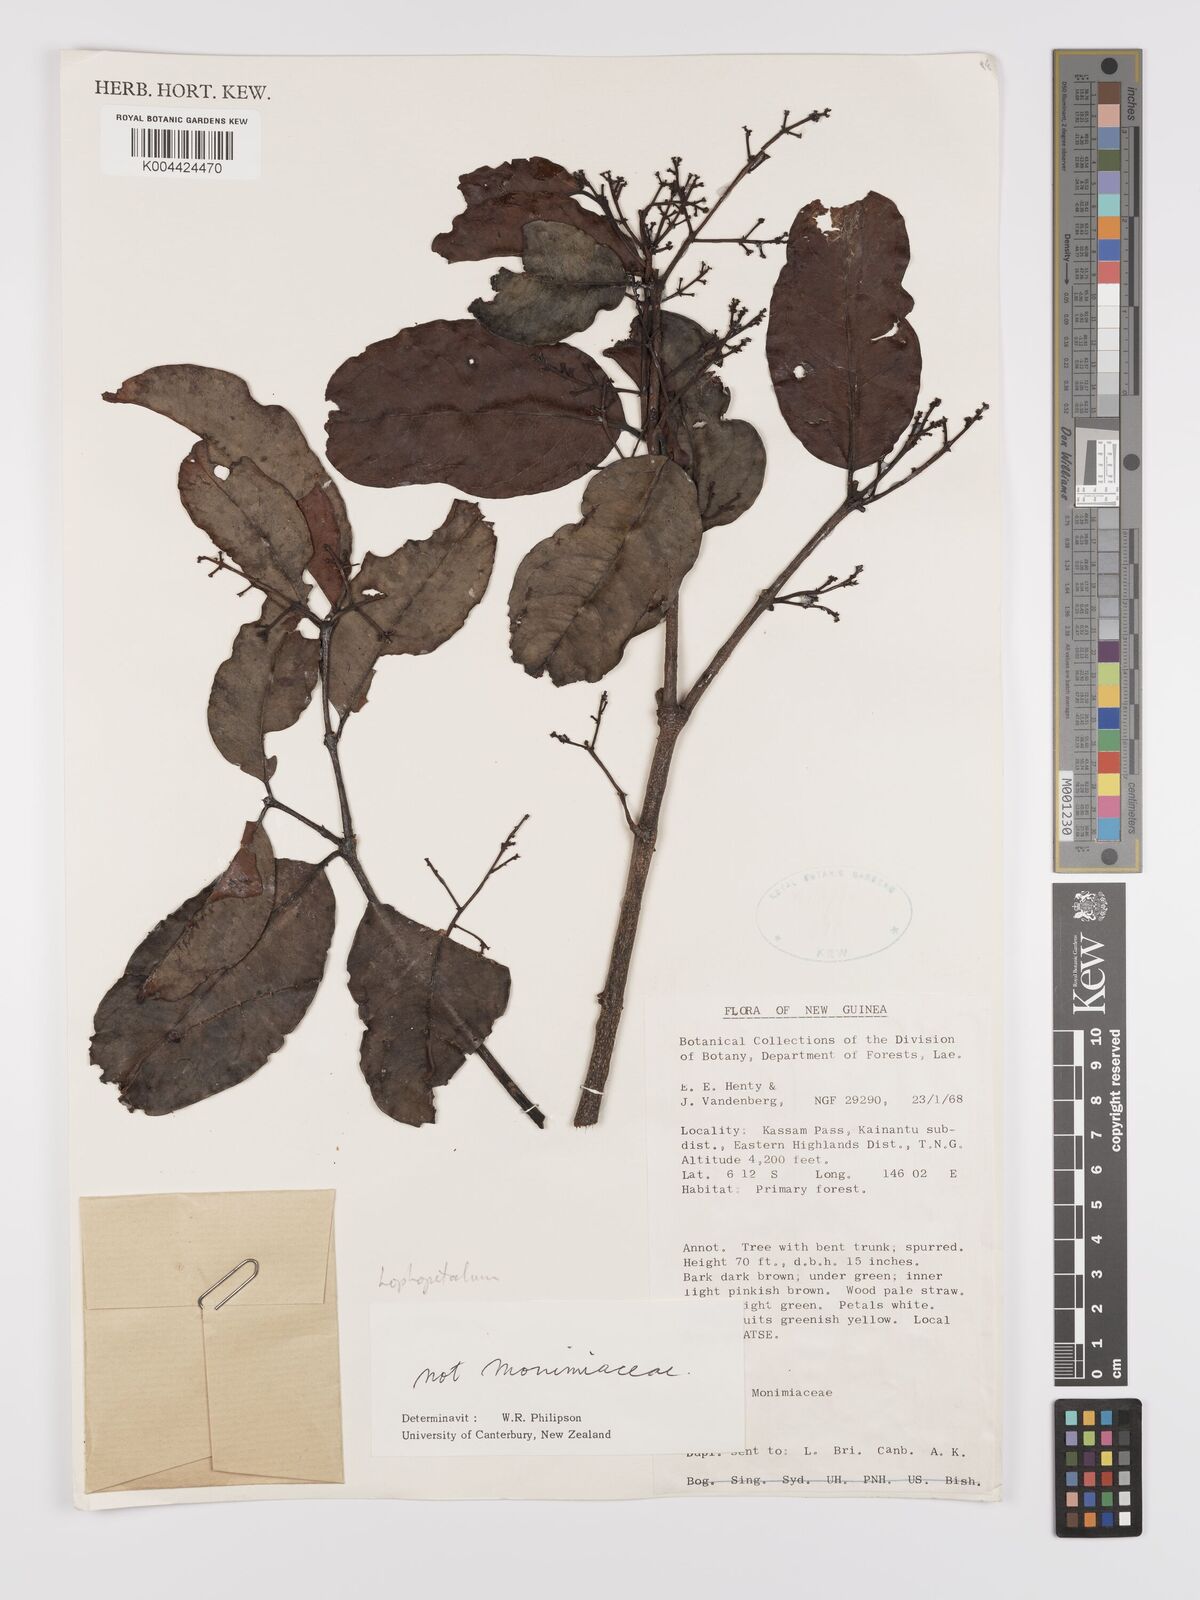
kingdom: Plantae
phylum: Tracheophyta
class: Magnoliopsida
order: Celastrales
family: Celastraceae
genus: Lophopetalum
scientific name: Lophopetalum
